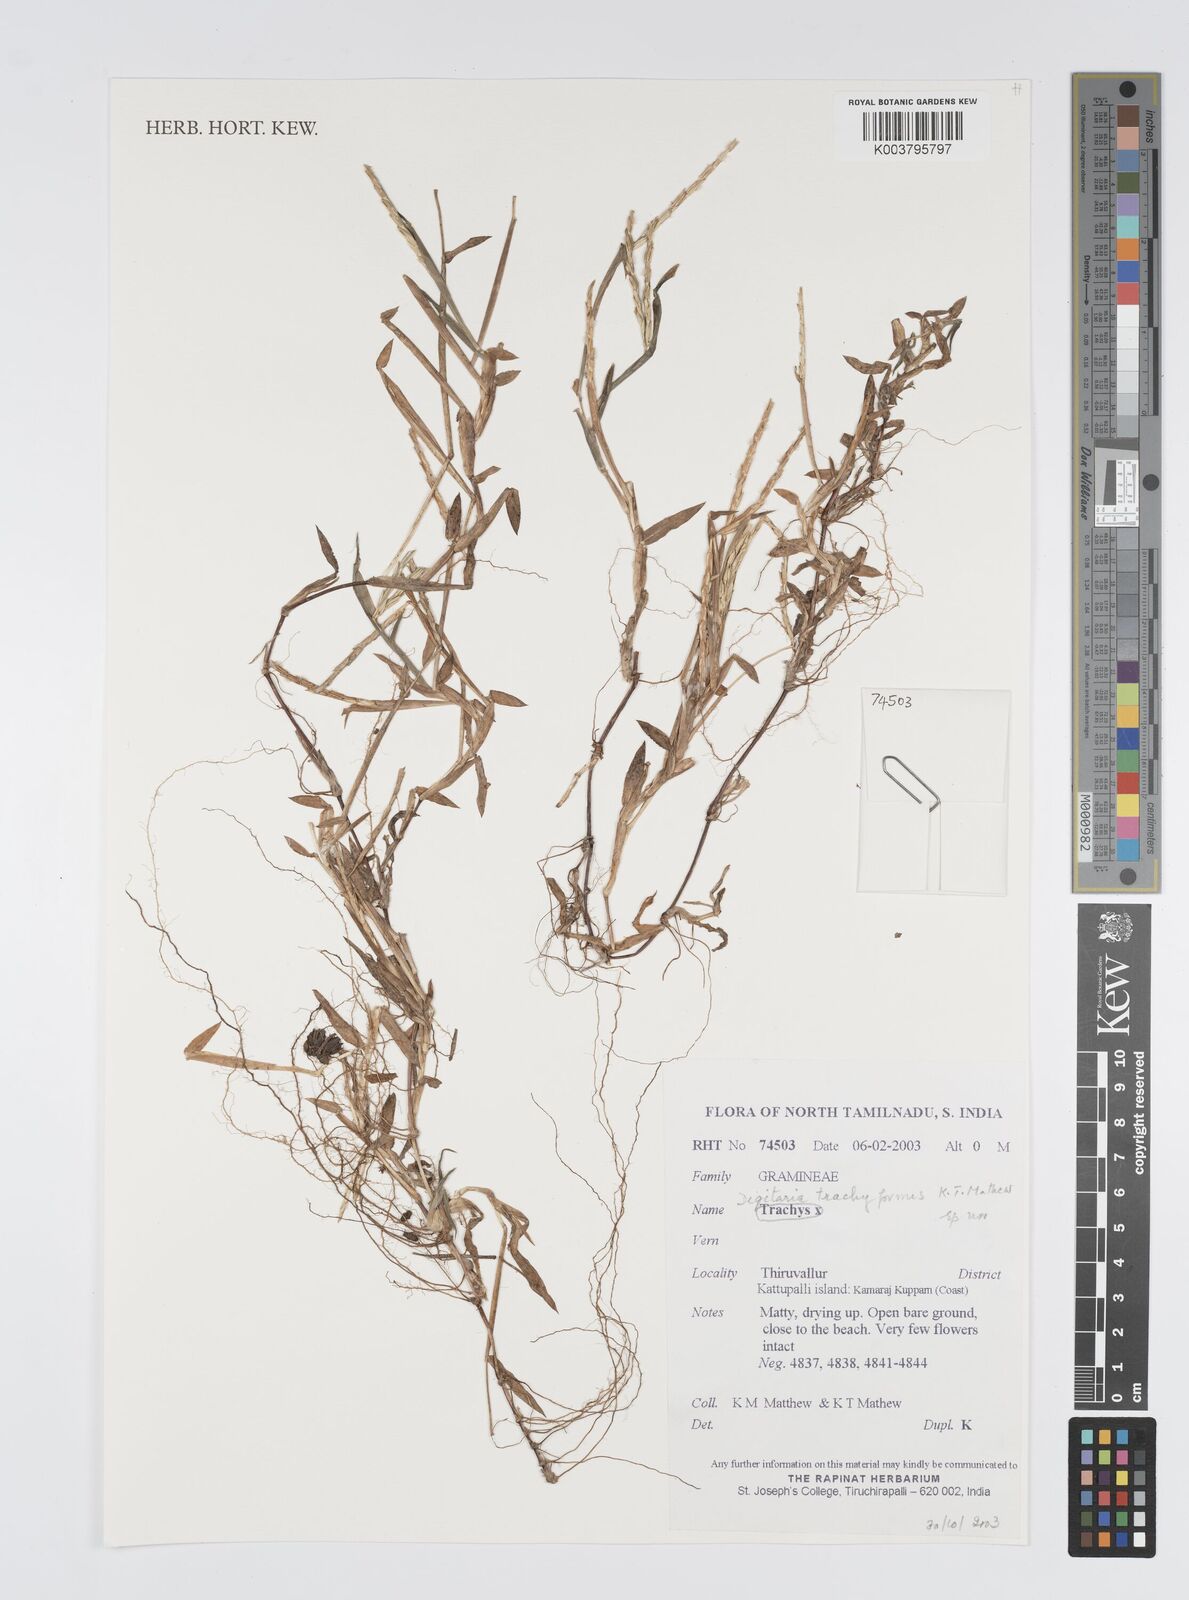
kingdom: Plantae
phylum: Tracheophyta
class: Liliopsida
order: Poales
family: Poaceae
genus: Digitaria
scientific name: Digitaria
